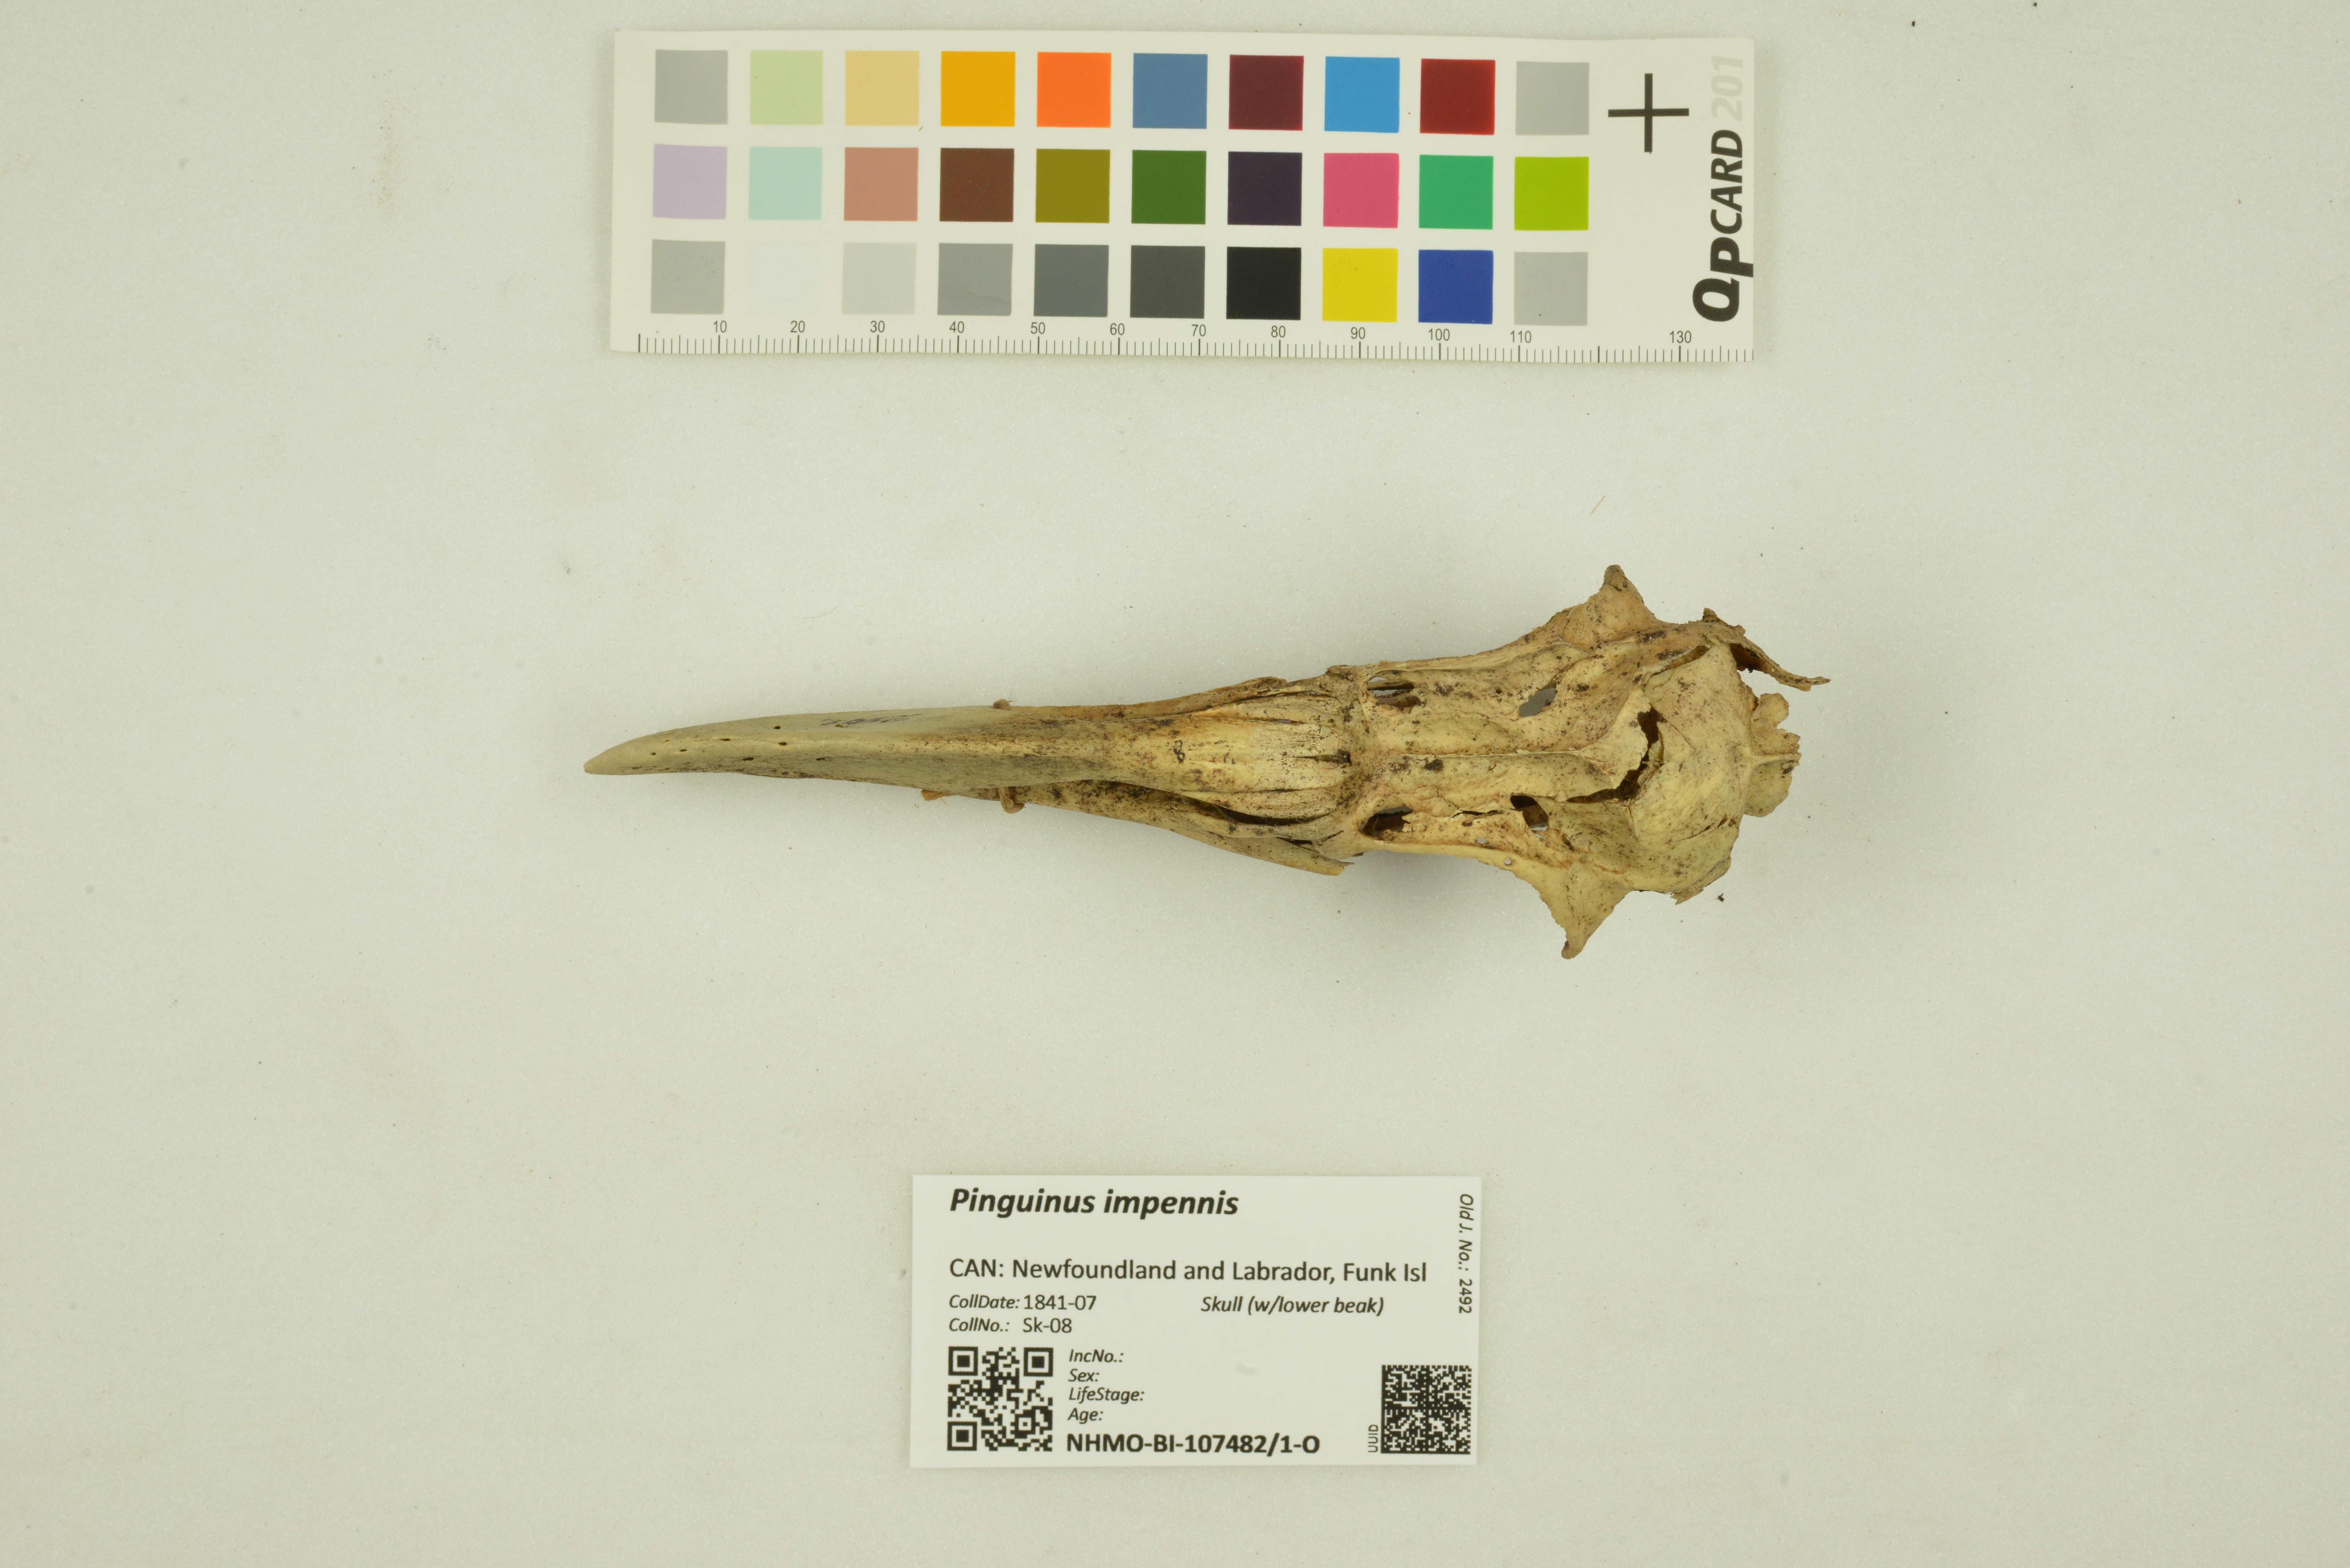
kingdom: Animalia
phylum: Chordata
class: Aves
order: Charadriiformes
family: Alcidae
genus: Pinguinus
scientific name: Pinguinus impennis
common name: Great auk
